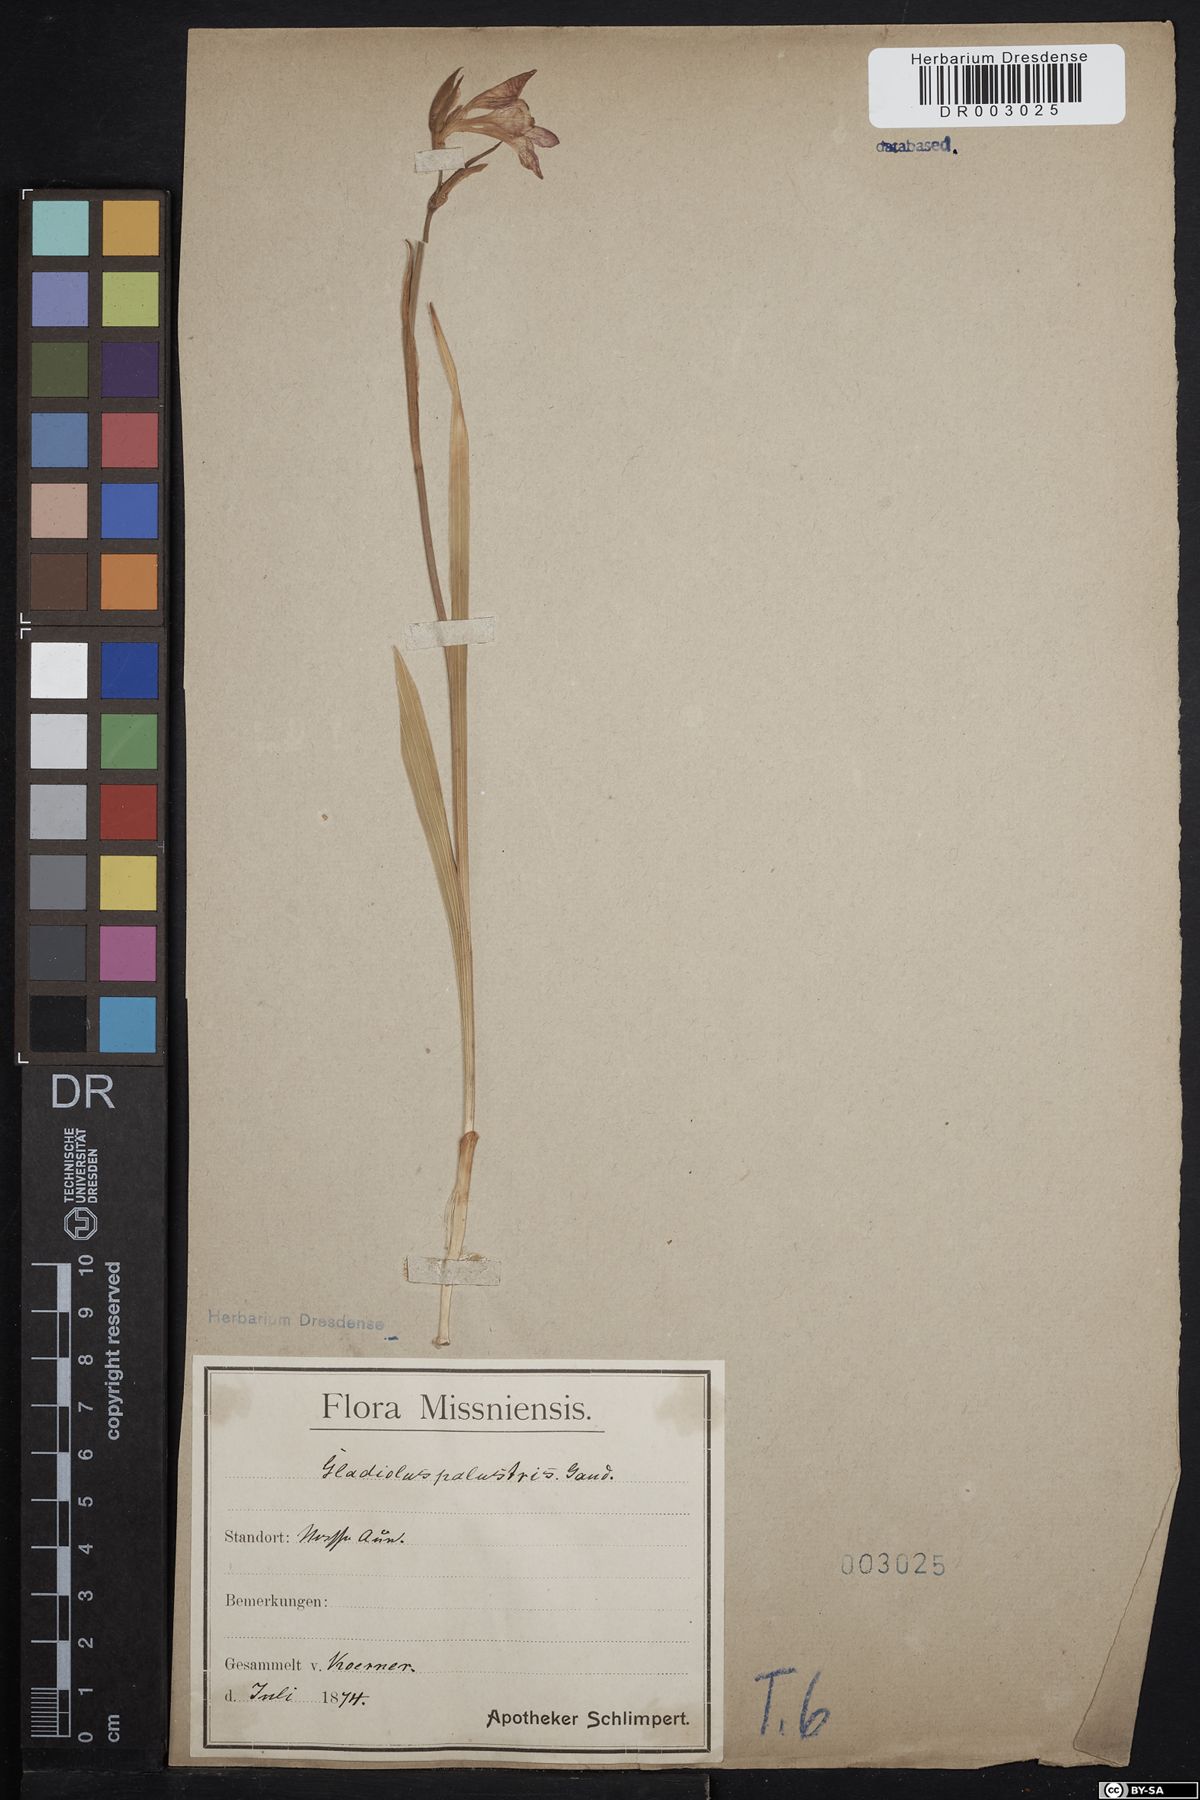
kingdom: Plantae
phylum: Tracheophyta
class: Liliopsida
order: Asparagales
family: Iridaceae
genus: Gladiolus
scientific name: Gladiolus palustris
